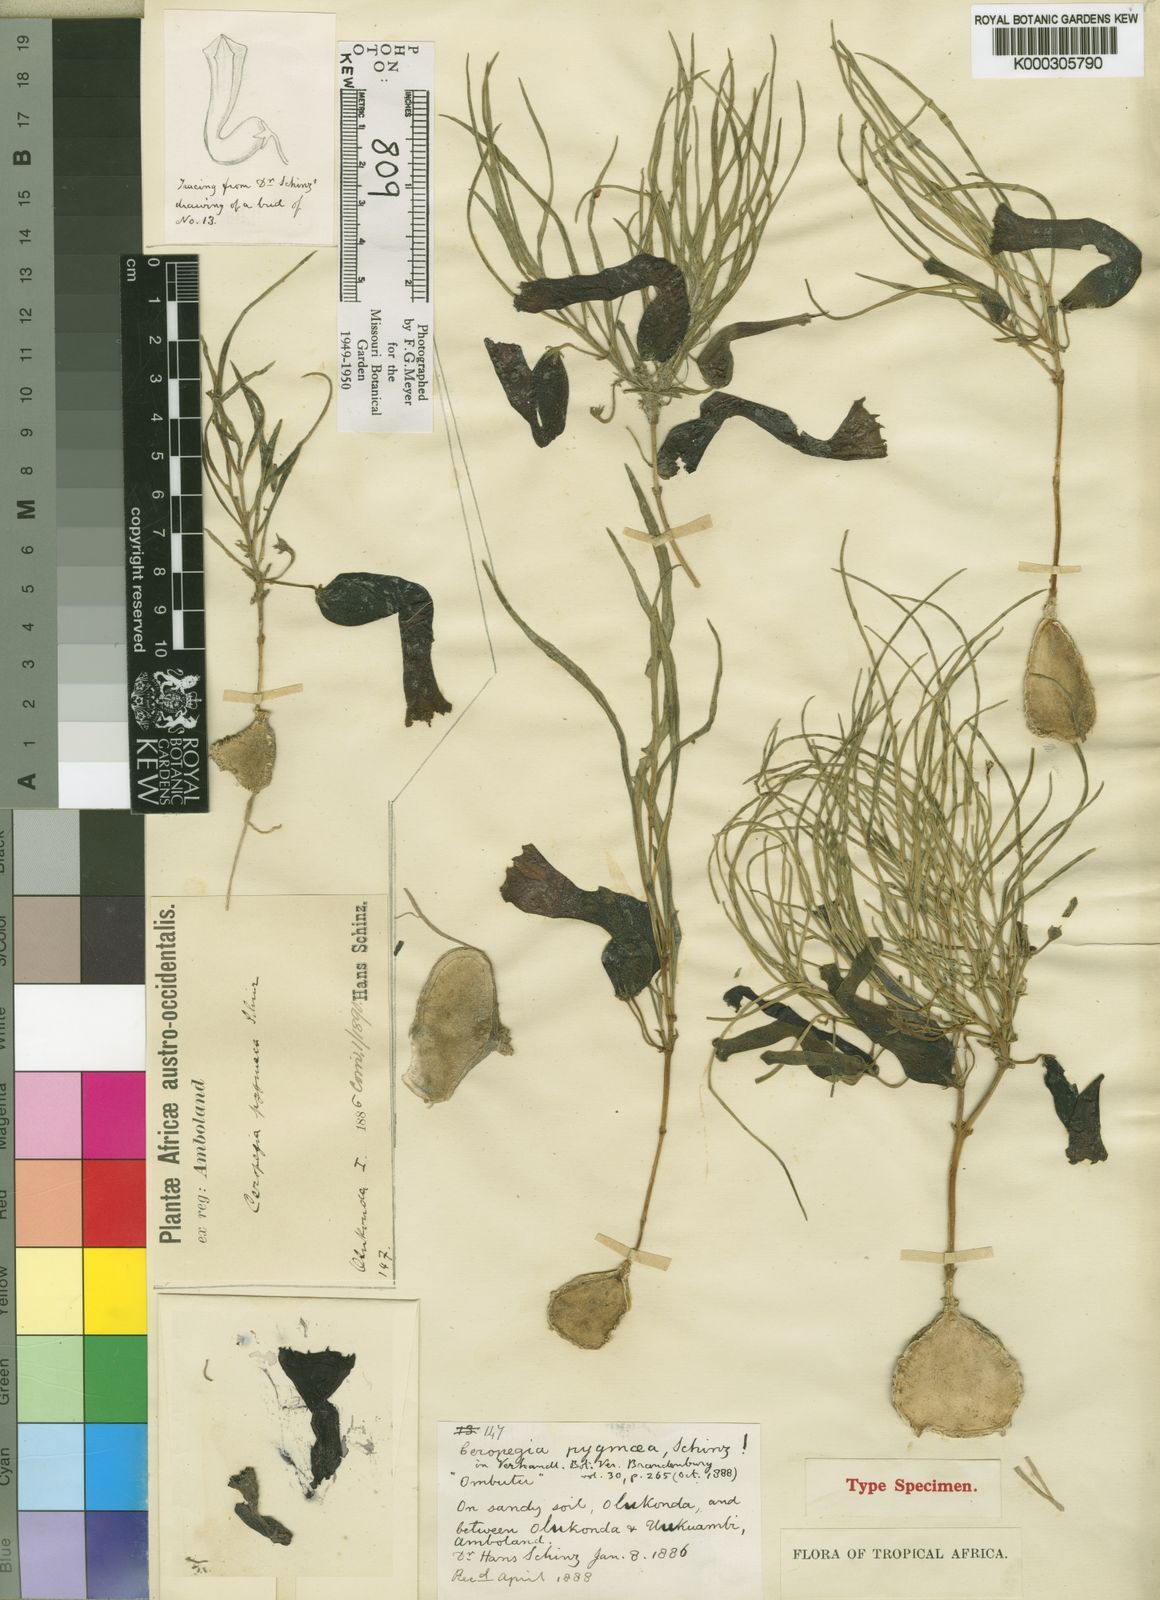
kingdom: Plantae
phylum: Tracheophyta
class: Magnoliopsida
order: Gentianales
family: Apocynaceae
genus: Ceropegia
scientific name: Ceropegia pygmaea
